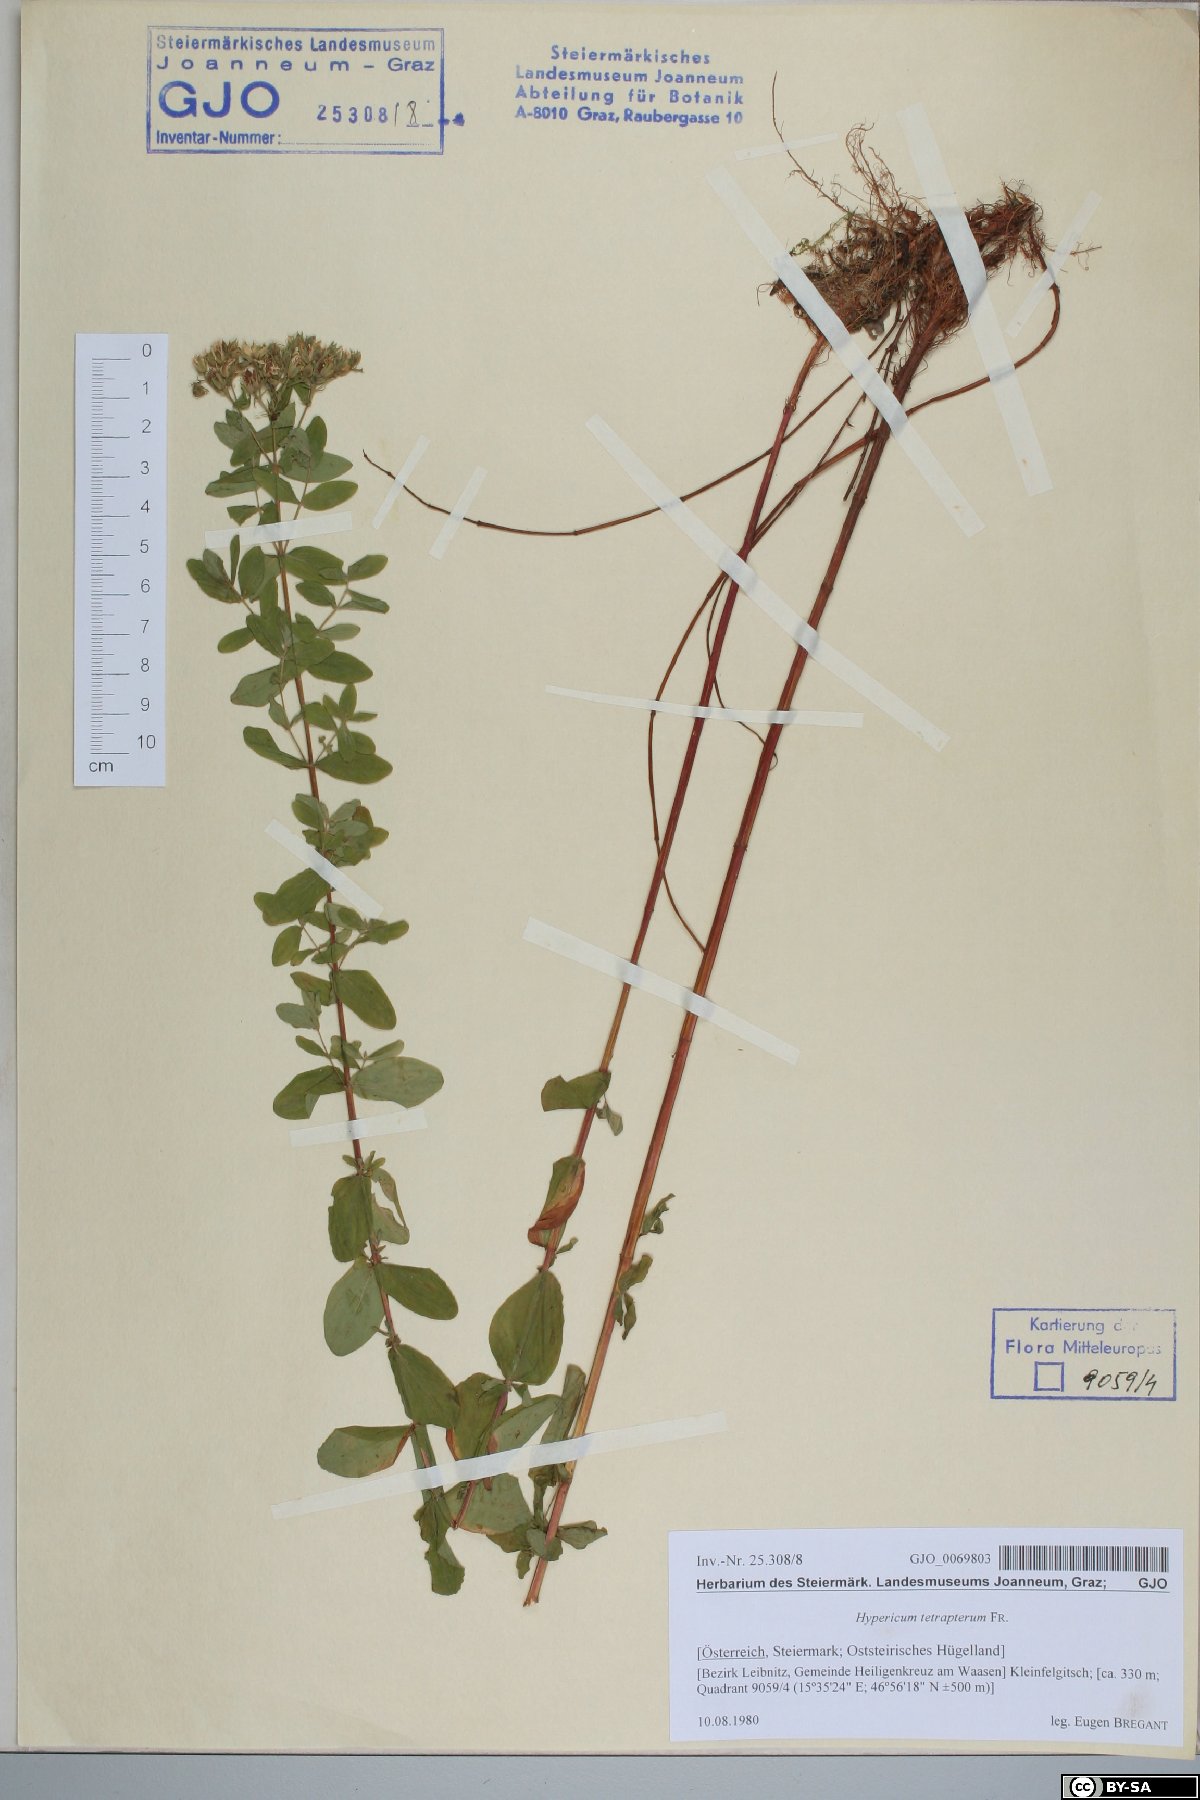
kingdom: Plantae
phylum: Tracheophyta
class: Magnoliopsida
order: Malpighiales
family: Hypericaceae
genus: Hypericum
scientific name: Hypericum tetrapterum
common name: Square-stalked st. john's-wort
